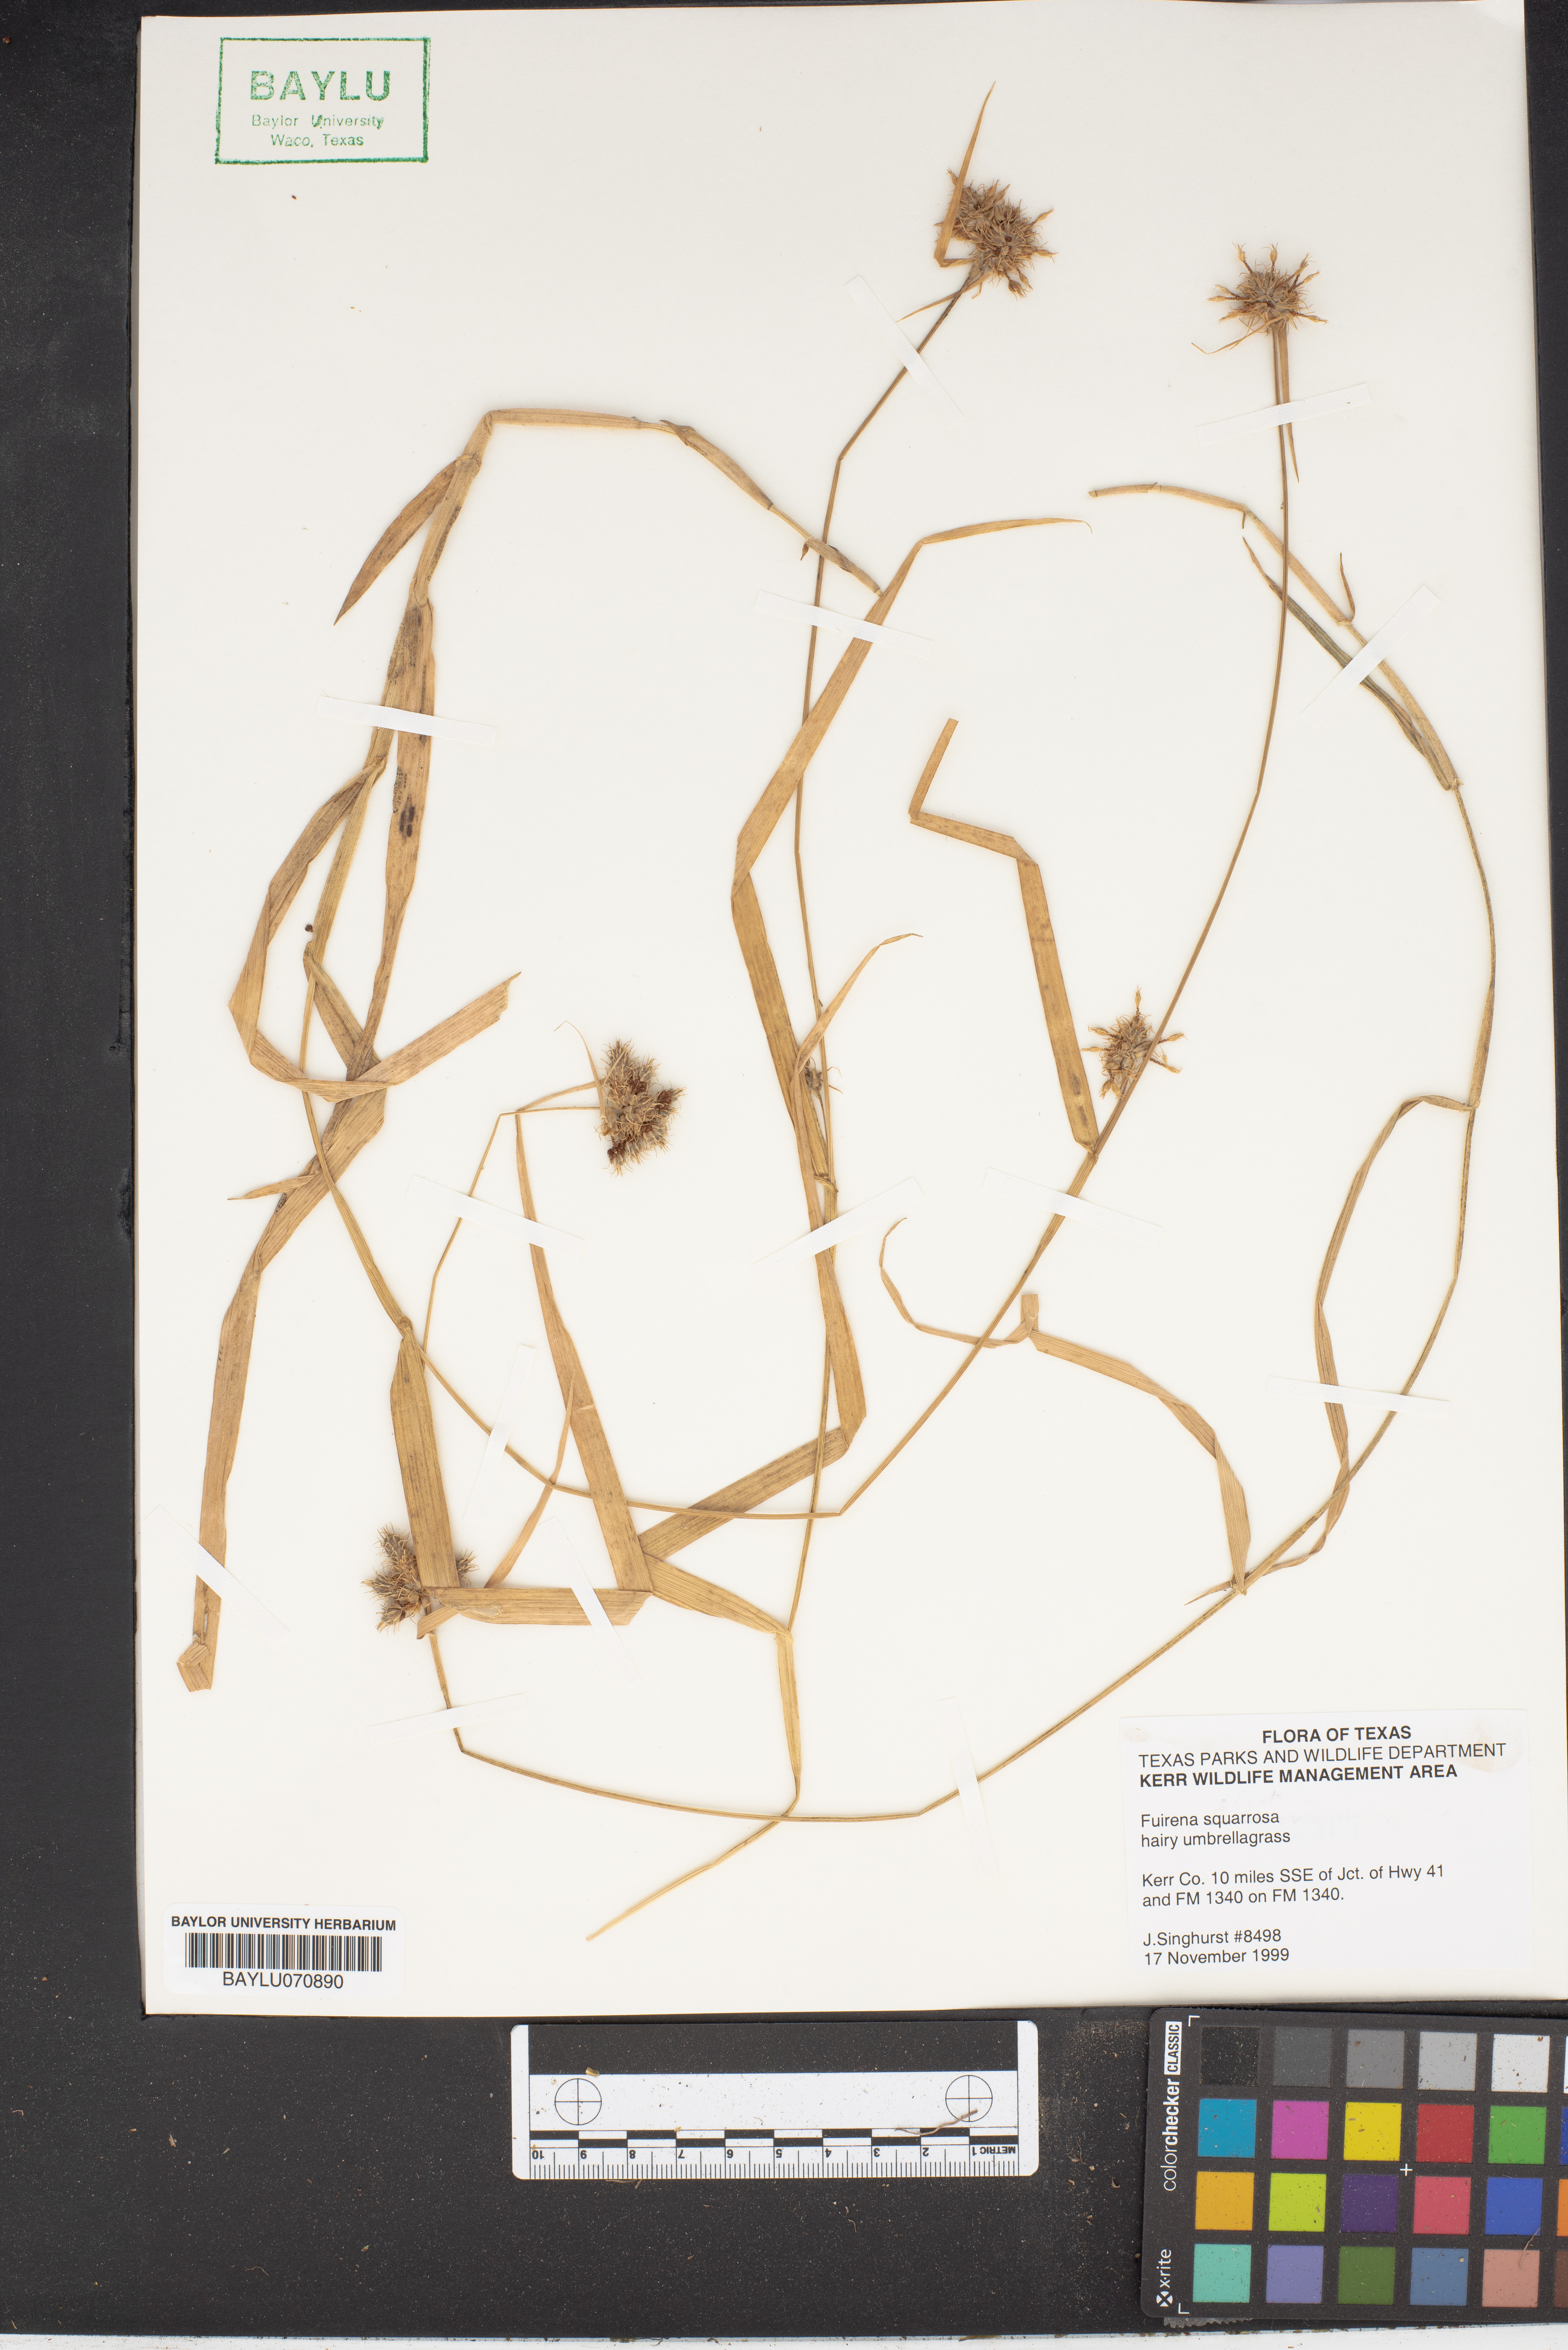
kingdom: Plantae
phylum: Tracheophyta
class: Liliopsida
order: Poales
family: Cyperaceae
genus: Fuirena
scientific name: Fuirena squarrosa
